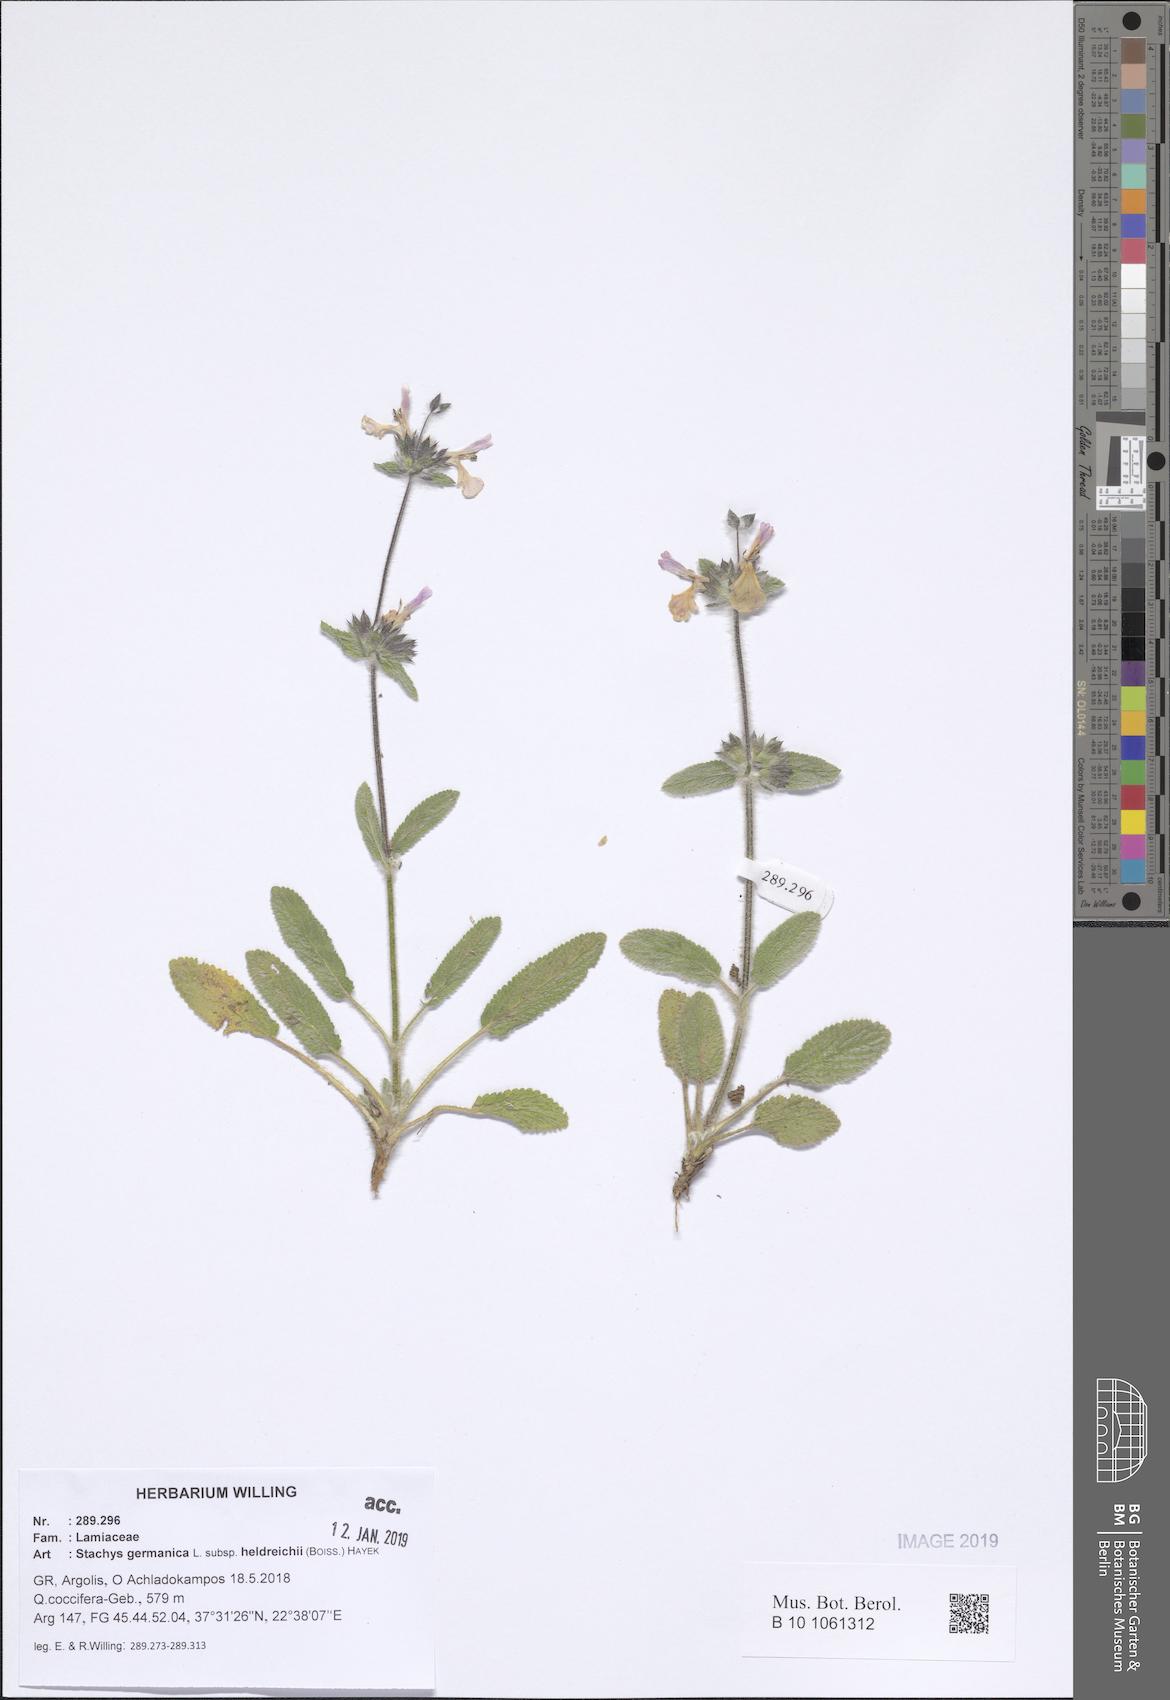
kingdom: Plantae
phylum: Tracheophyta
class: Magnoliopsida
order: Lamiales
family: Lamiaceae
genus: Stachys
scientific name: Stachys germanica
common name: Downy woundwort
